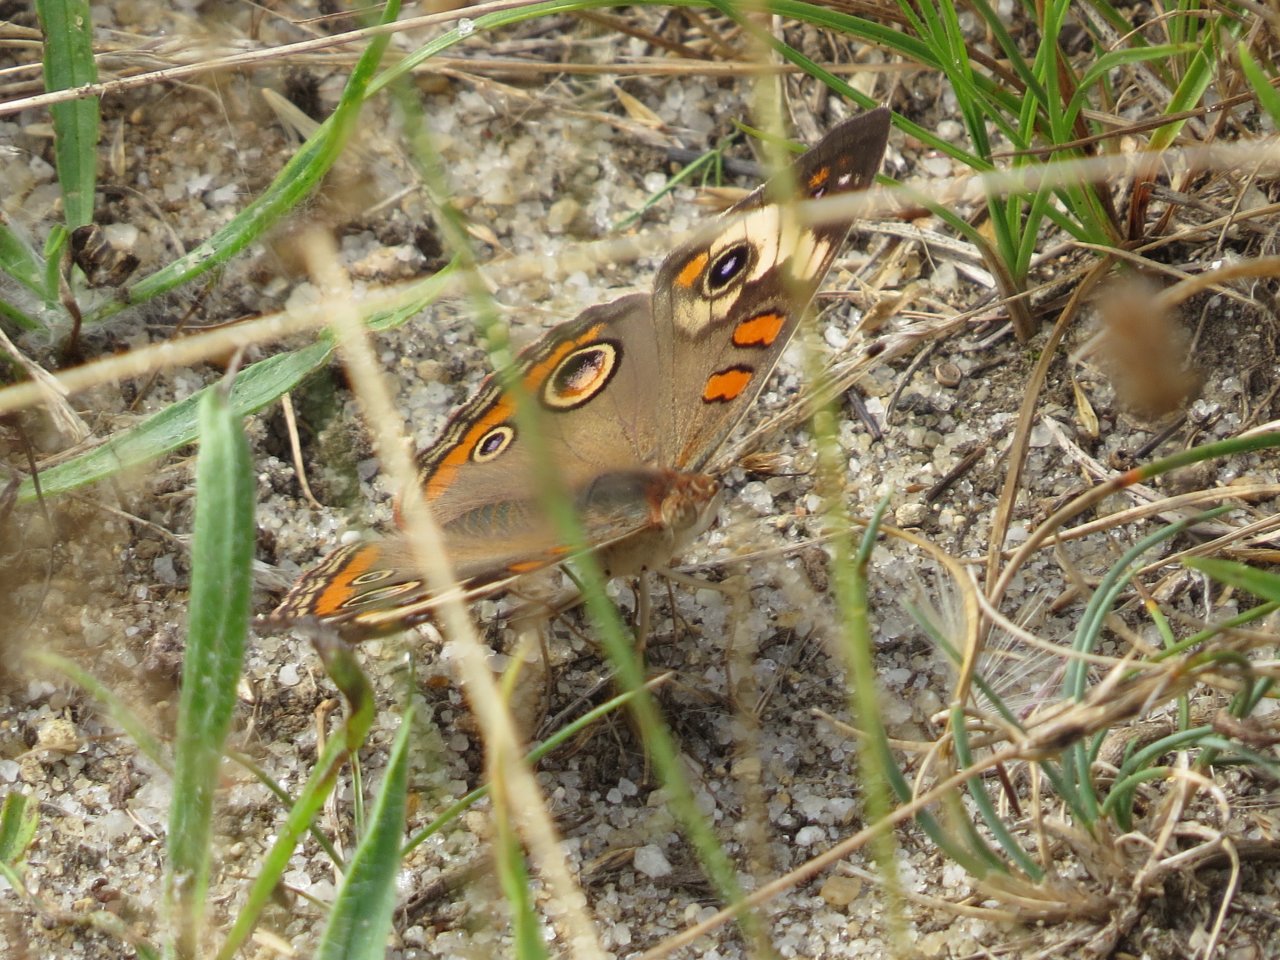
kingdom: Animalia
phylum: Arthropoda
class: Insecta
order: Lepidoptera
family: Nymphalidae
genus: Junonia
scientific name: Junonia coenia
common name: Common Buckeye
